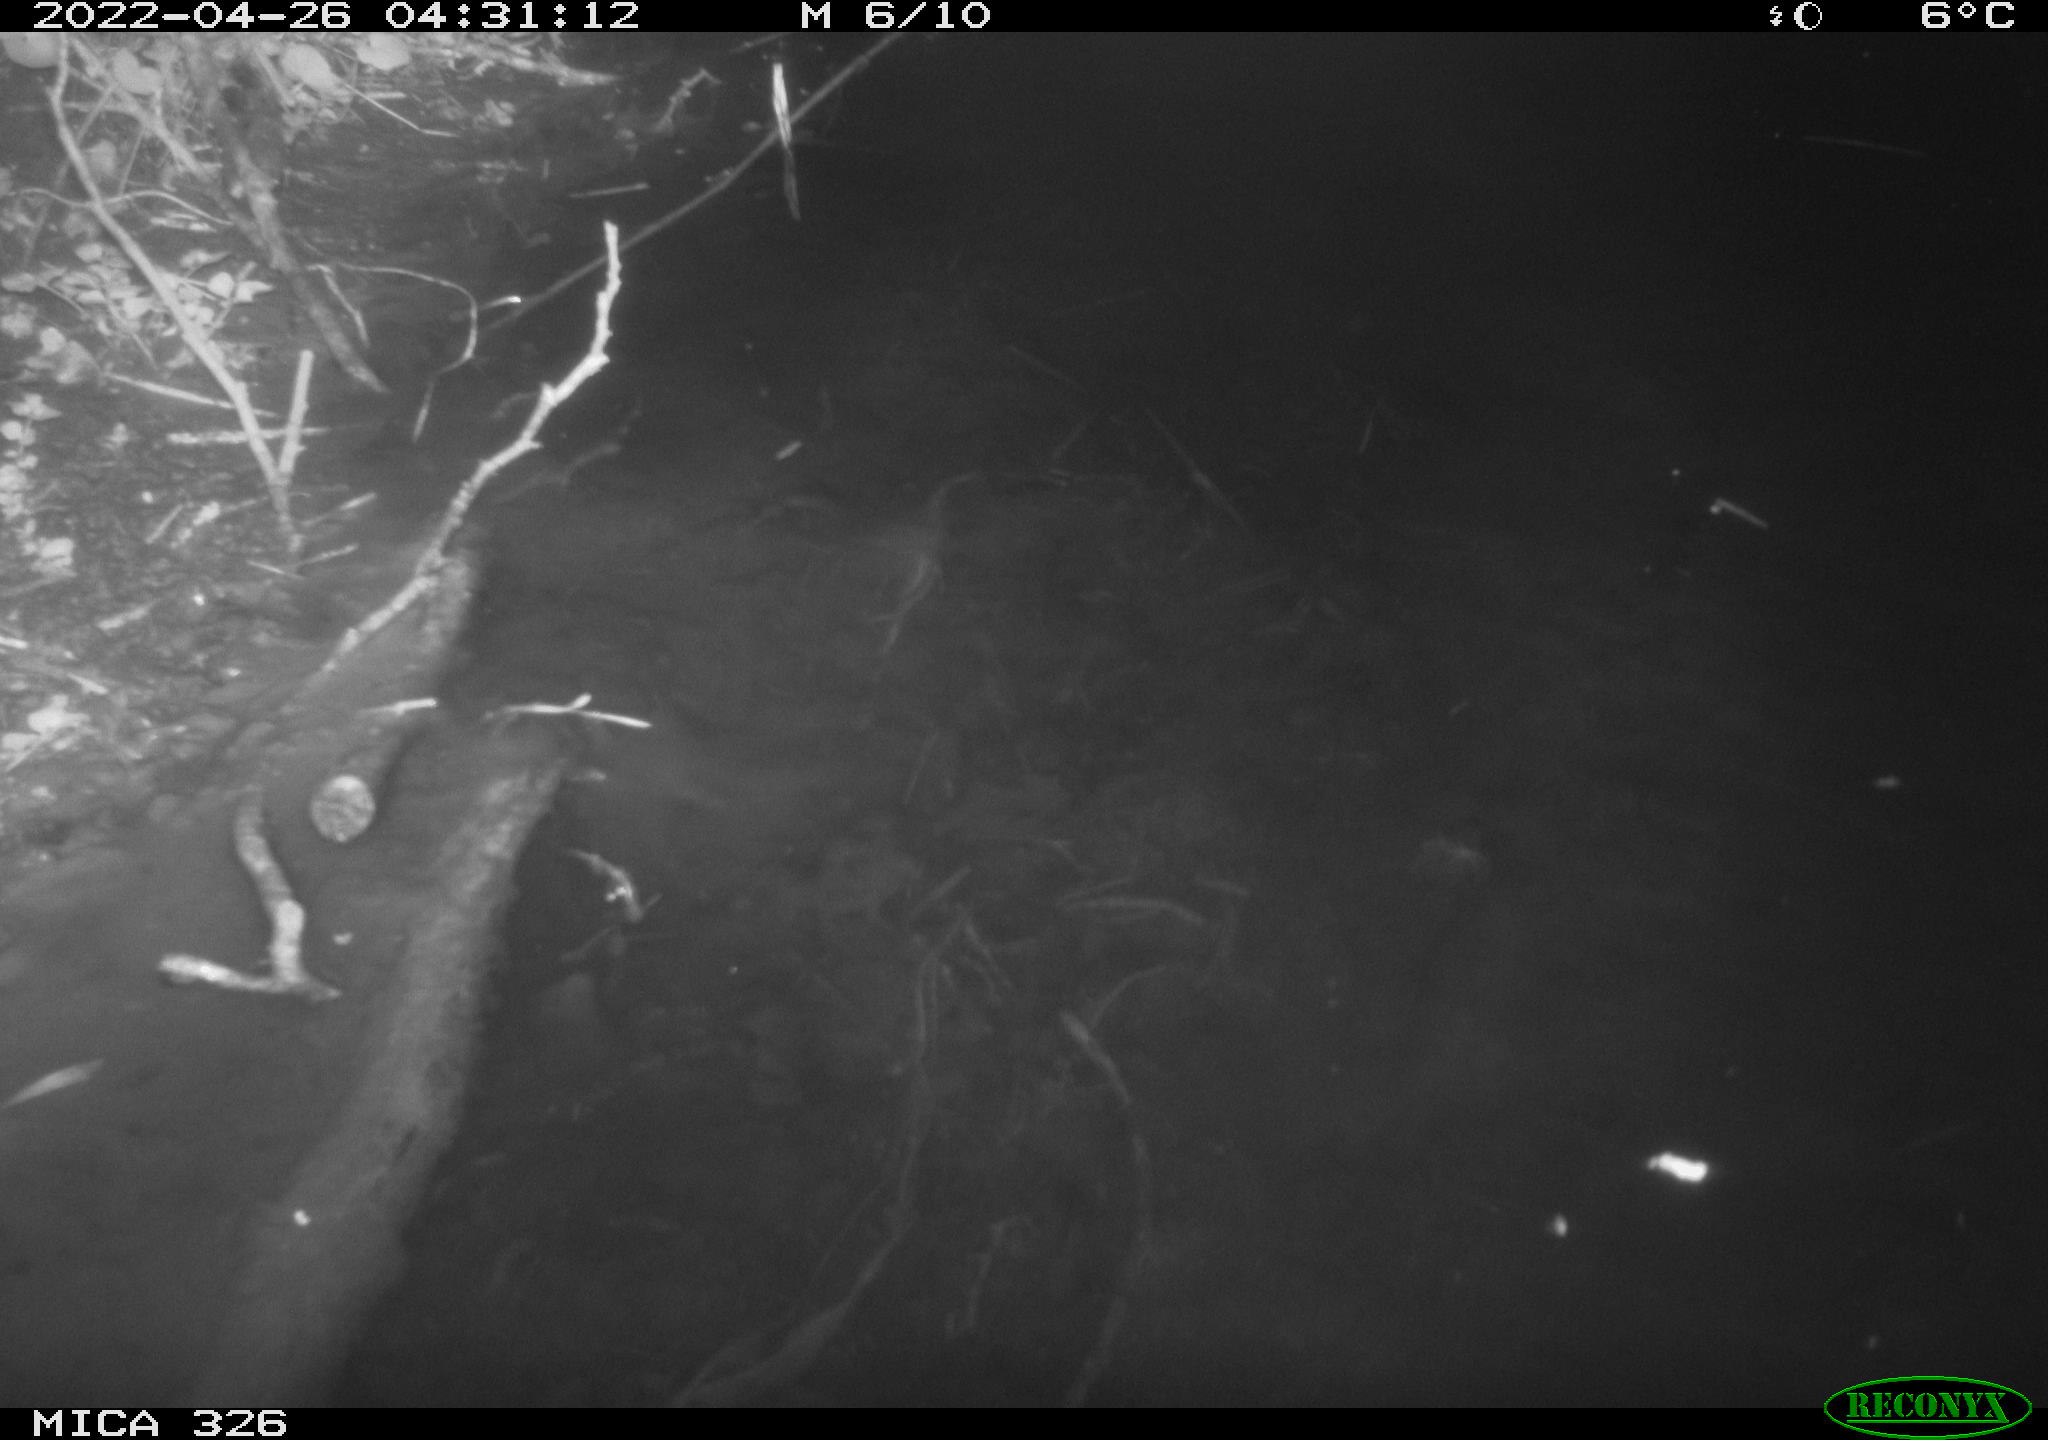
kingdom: Animalia
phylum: Chordata
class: Aves
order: Gruiformes
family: Rallidae
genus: Gallinula
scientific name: Gallinula chloropus
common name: Common moorhen
